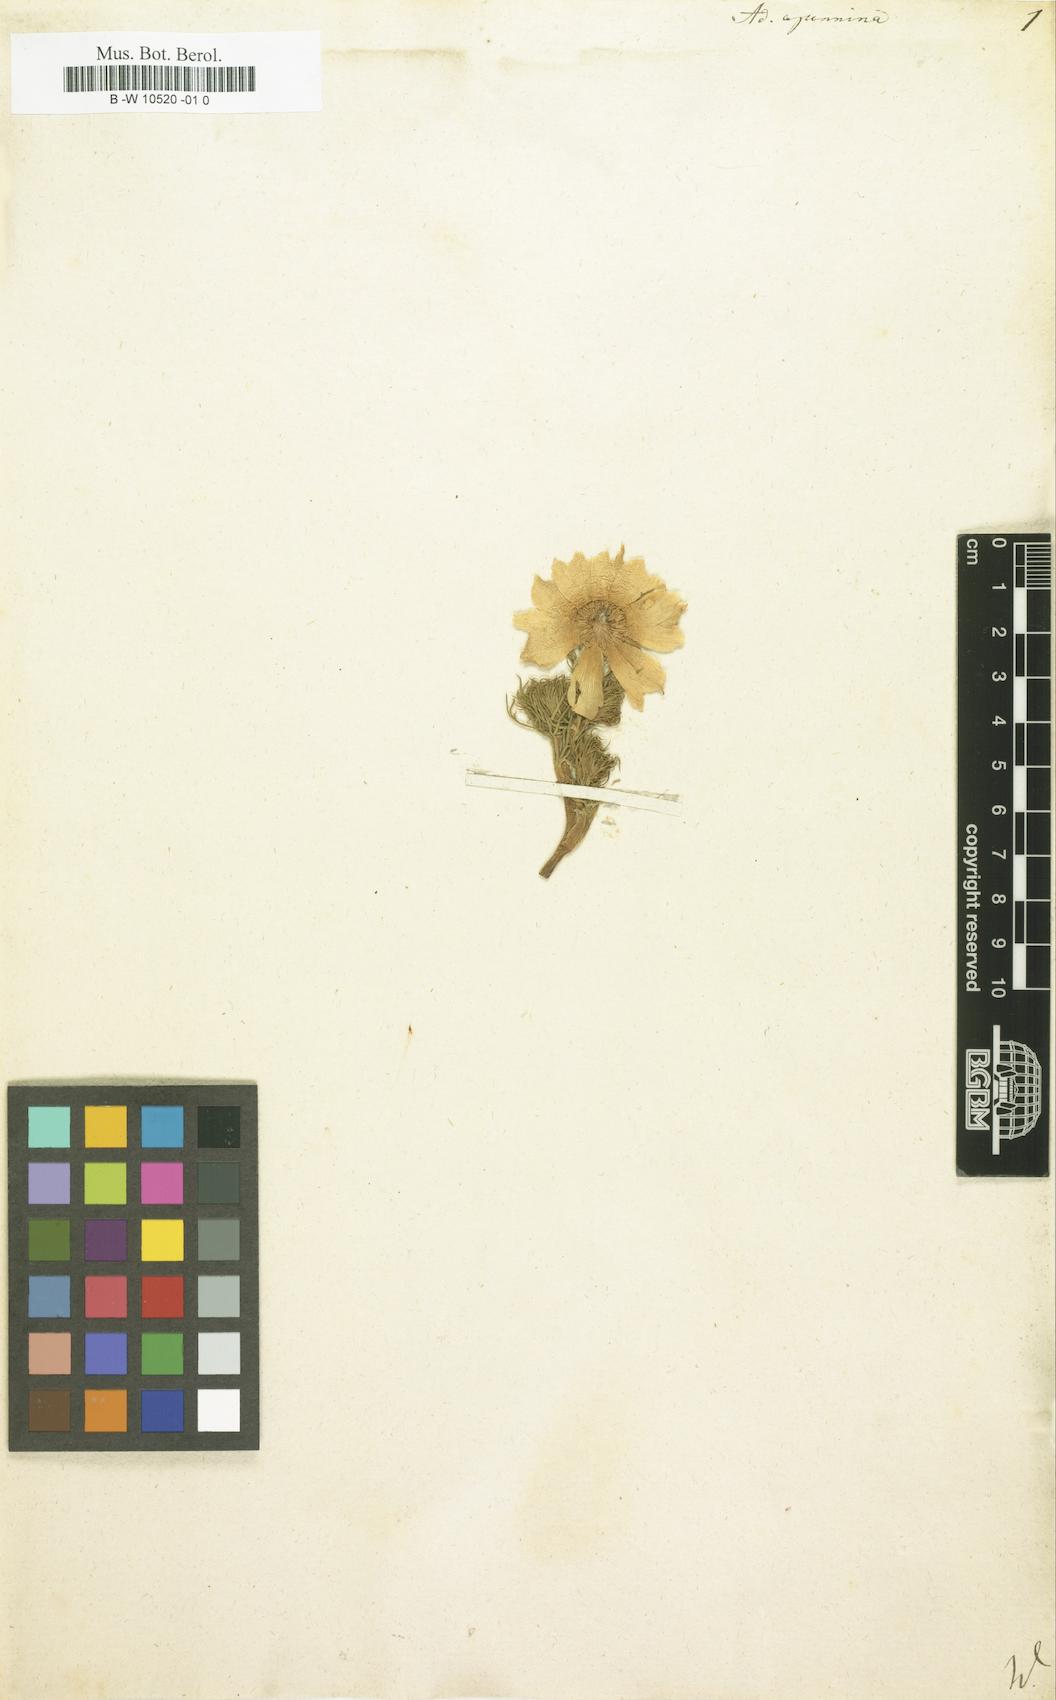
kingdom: Plantae
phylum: Tracheophyta
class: Magnoliopsida
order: Ranunculales
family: Ranunculaceae
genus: Adonis
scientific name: Adonis vernalis
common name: Yellow pheasants-eye
